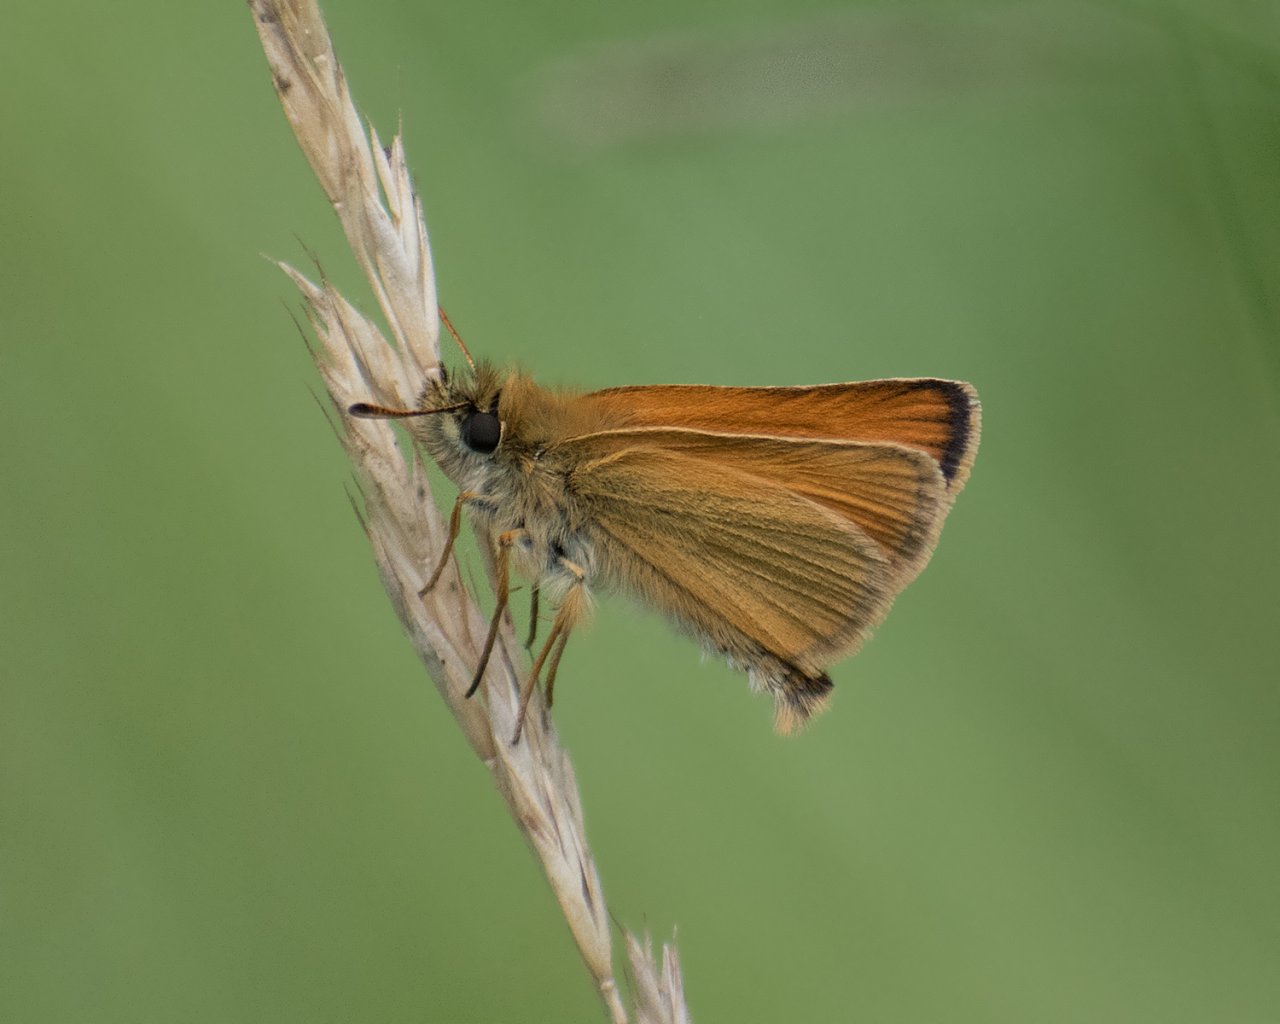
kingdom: Animalia
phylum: Arthropoda
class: Insecta
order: Lepidoptera
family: Hesperiidae
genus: Thymelicus
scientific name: Thymelicus lineola
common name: European Skipper
